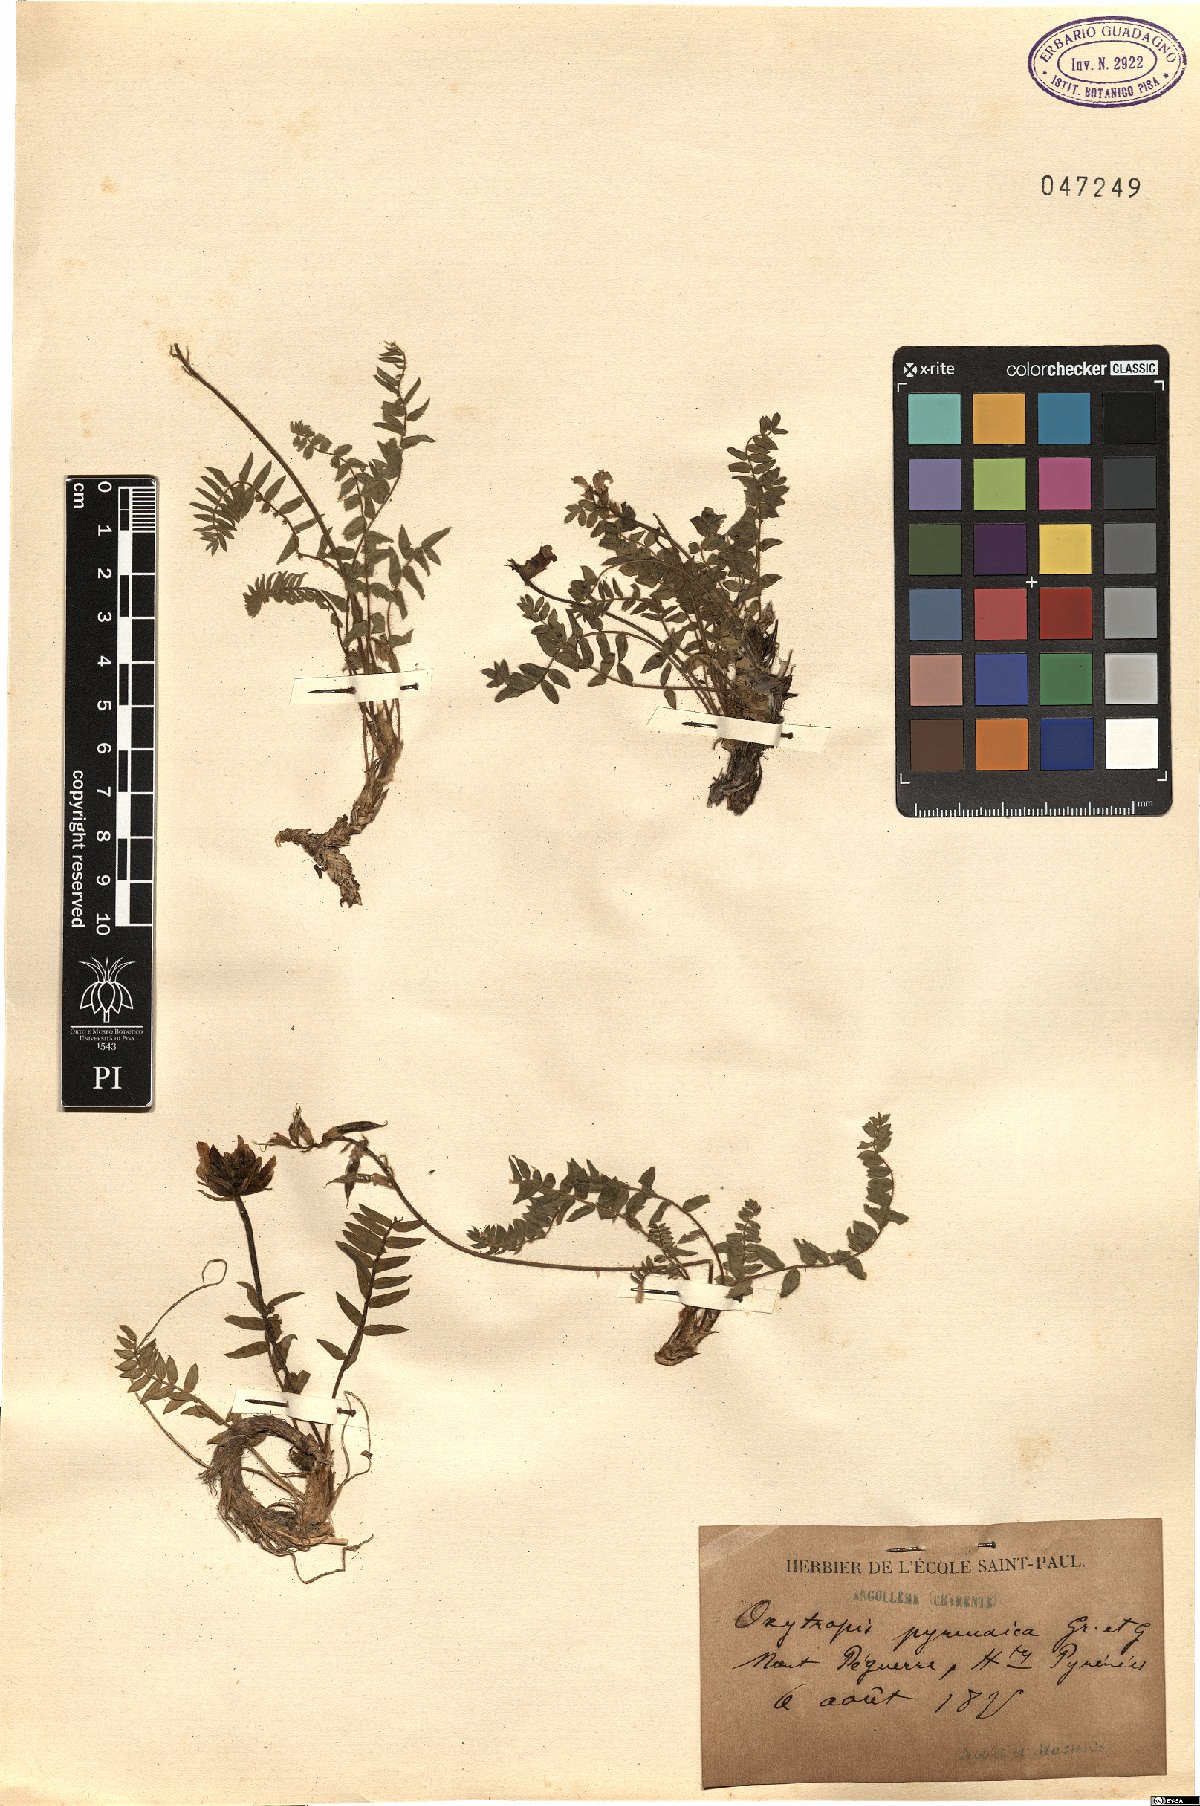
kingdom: Plantae
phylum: Tracheophyta
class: Magnoliopsida
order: Fabales
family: Fabaceae
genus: Oxytropis
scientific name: Oxytropis neglecta
